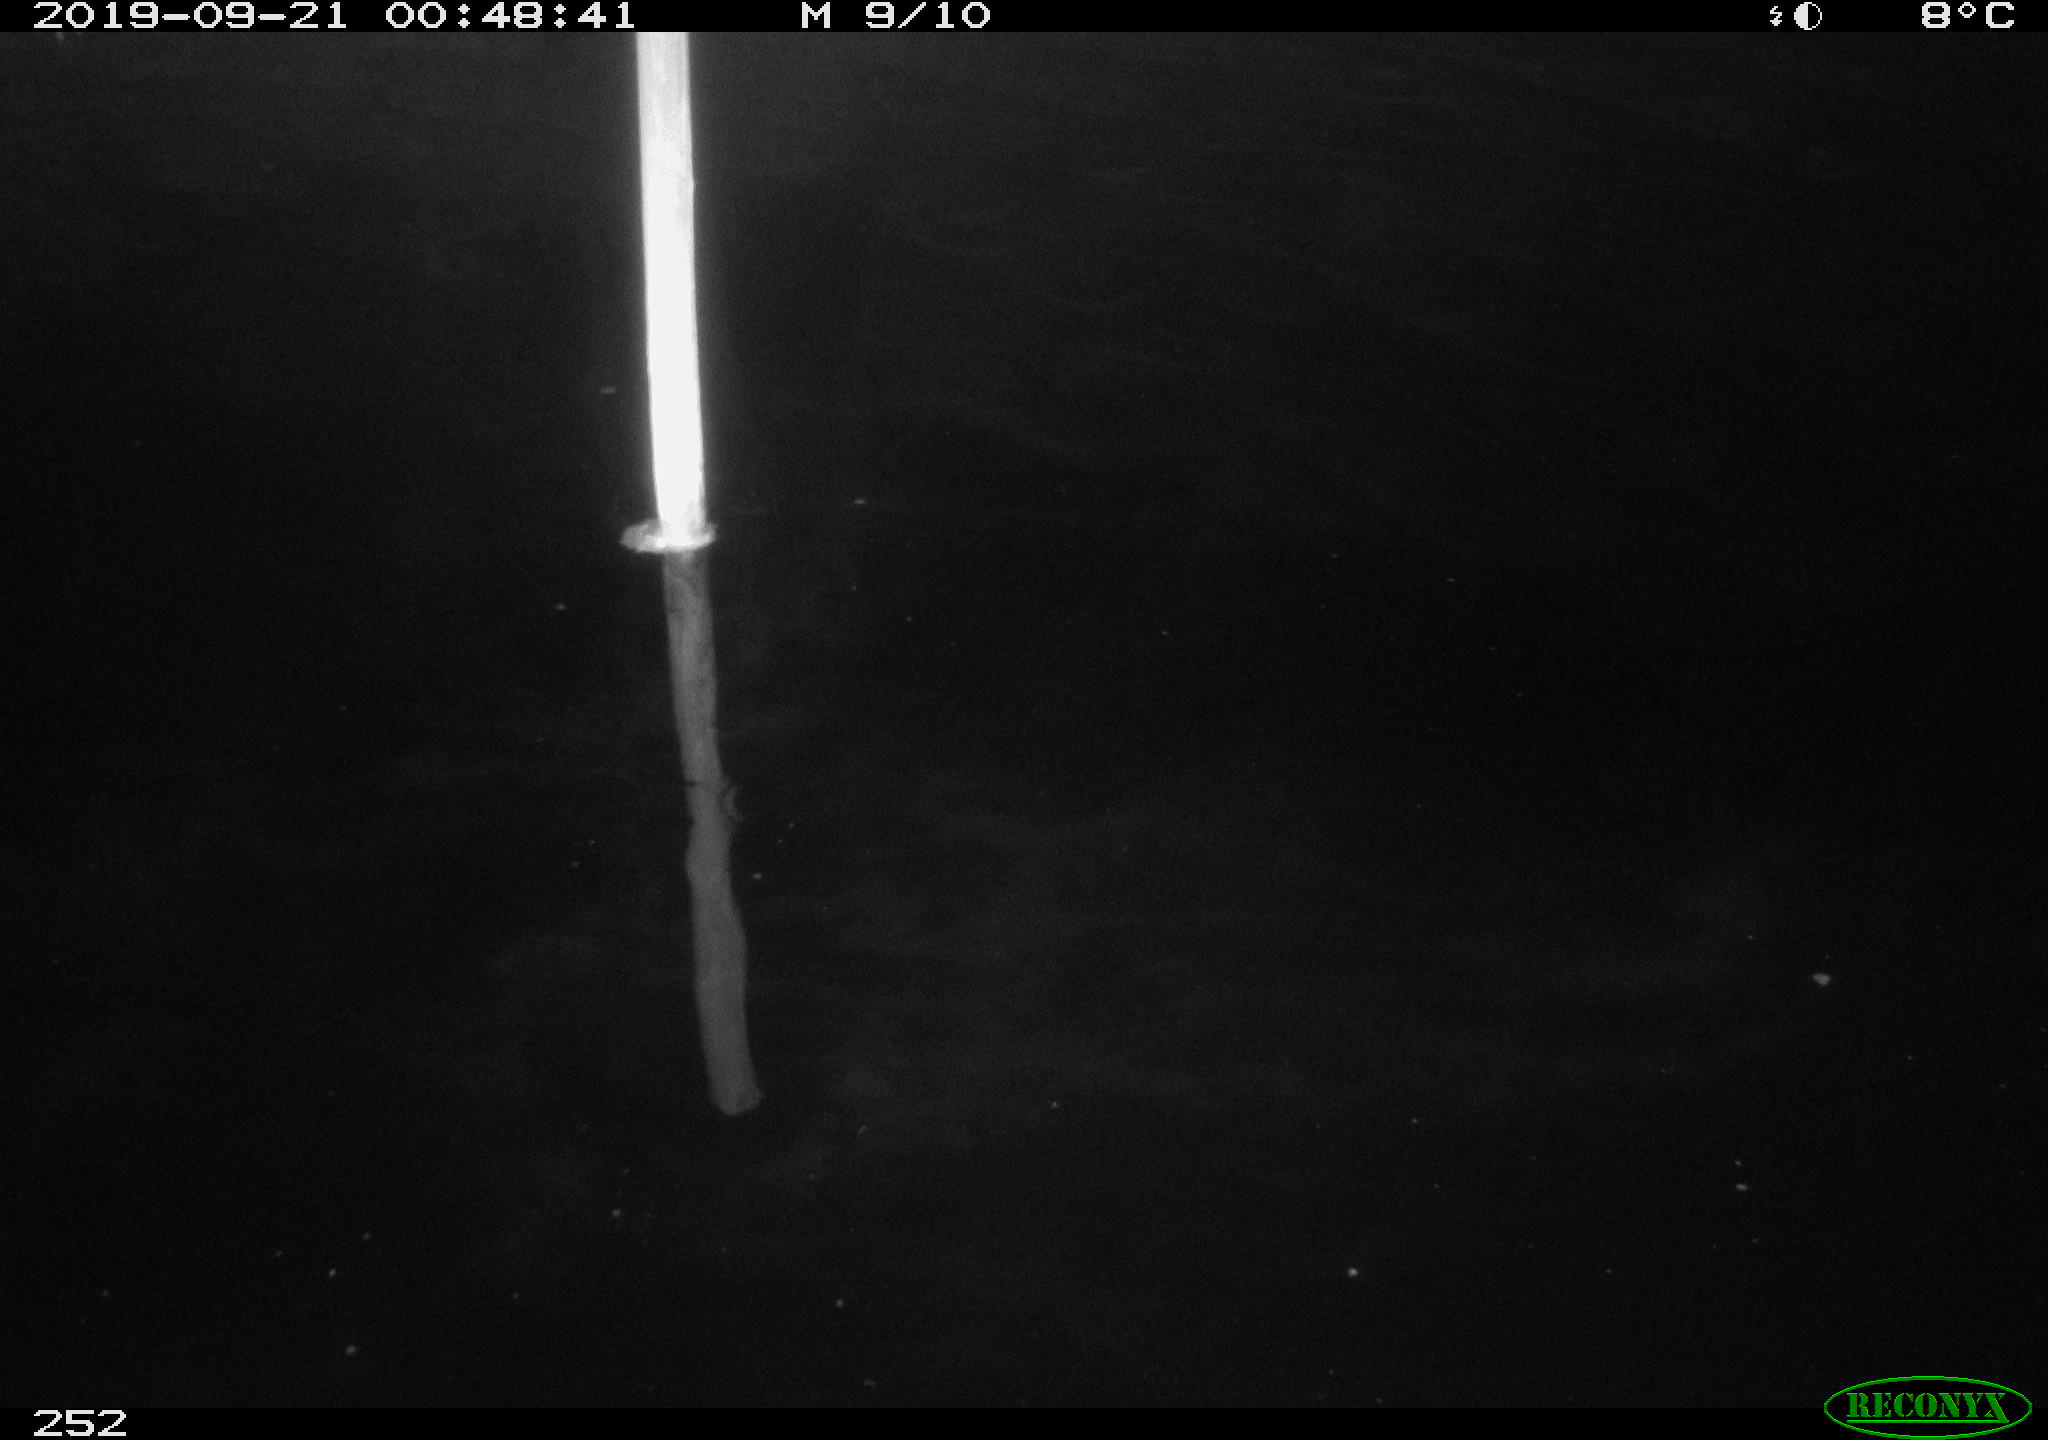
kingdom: Animalia
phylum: Chordata
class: Aves
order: Anseriformes
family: Anatidae
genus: Anas
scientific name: Anas platyrhynchos
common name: Mallard
